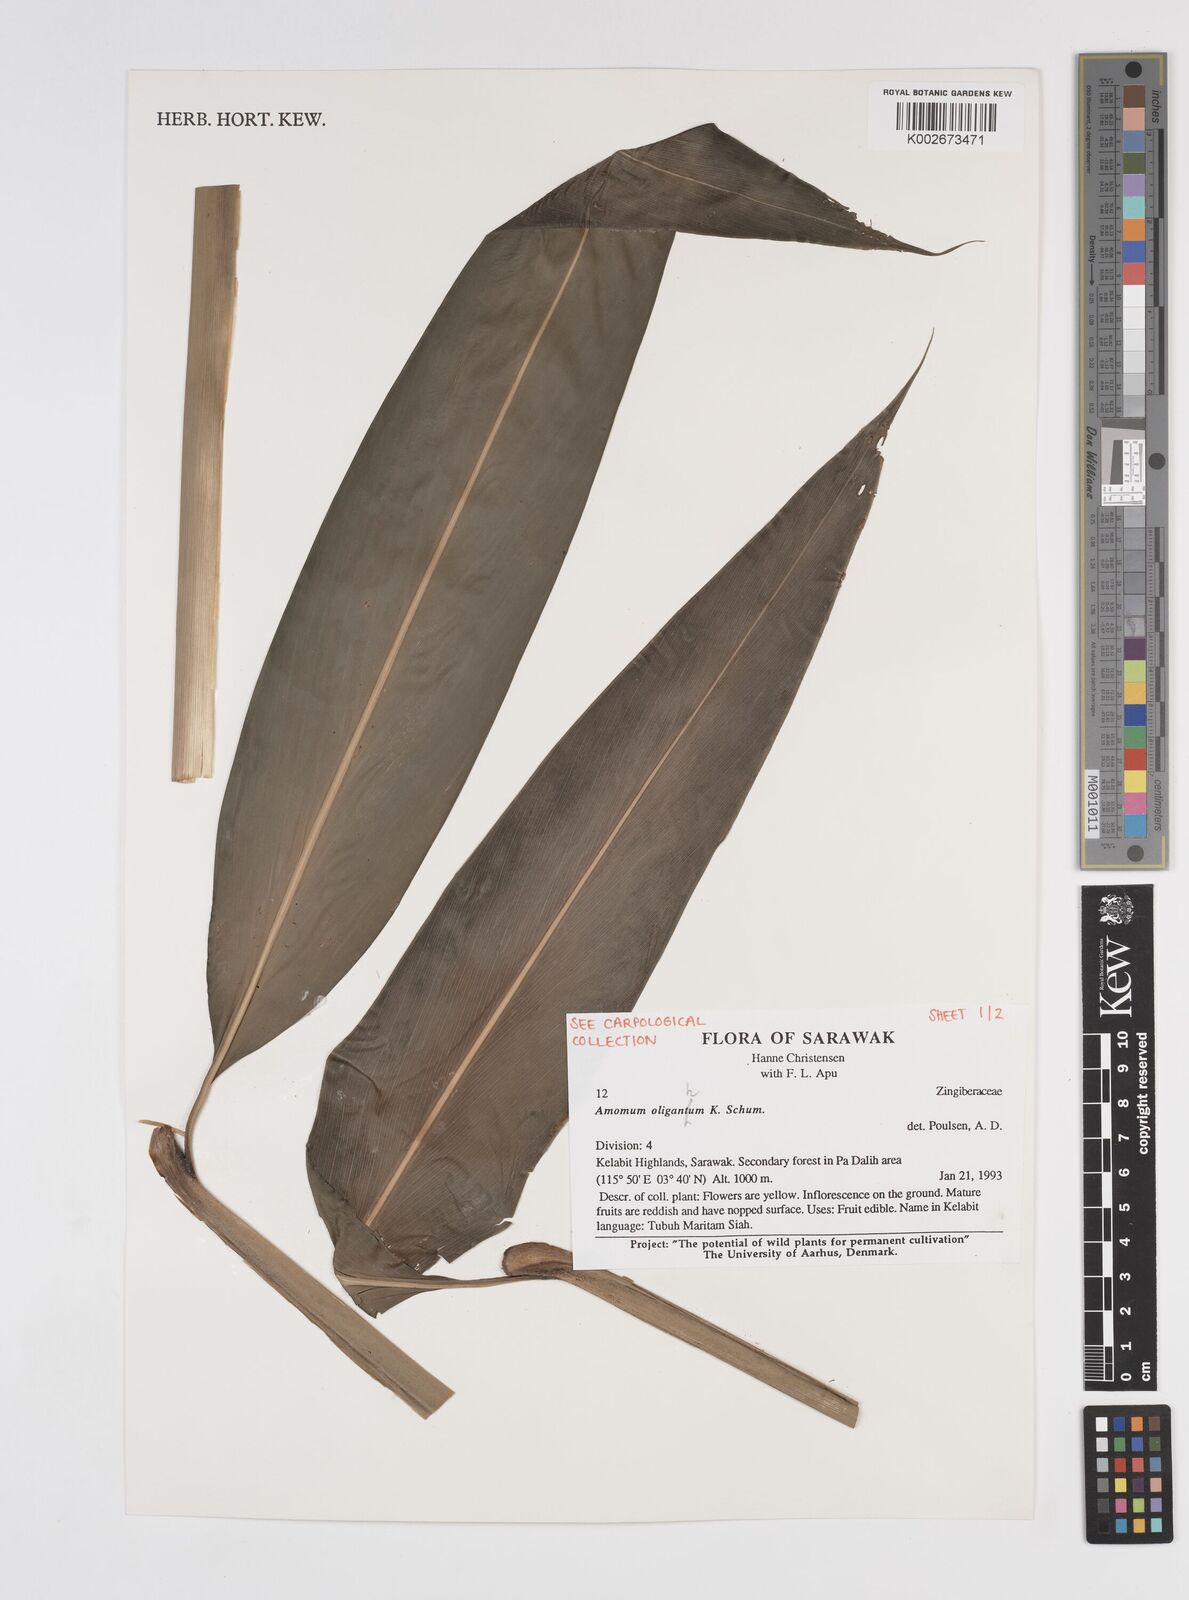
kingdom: Plantae
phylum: Tracheophyta
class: Liliopsida
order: Zingiberales
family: Zingiberaceae
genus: Meistera
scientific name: Meistera oligantha
